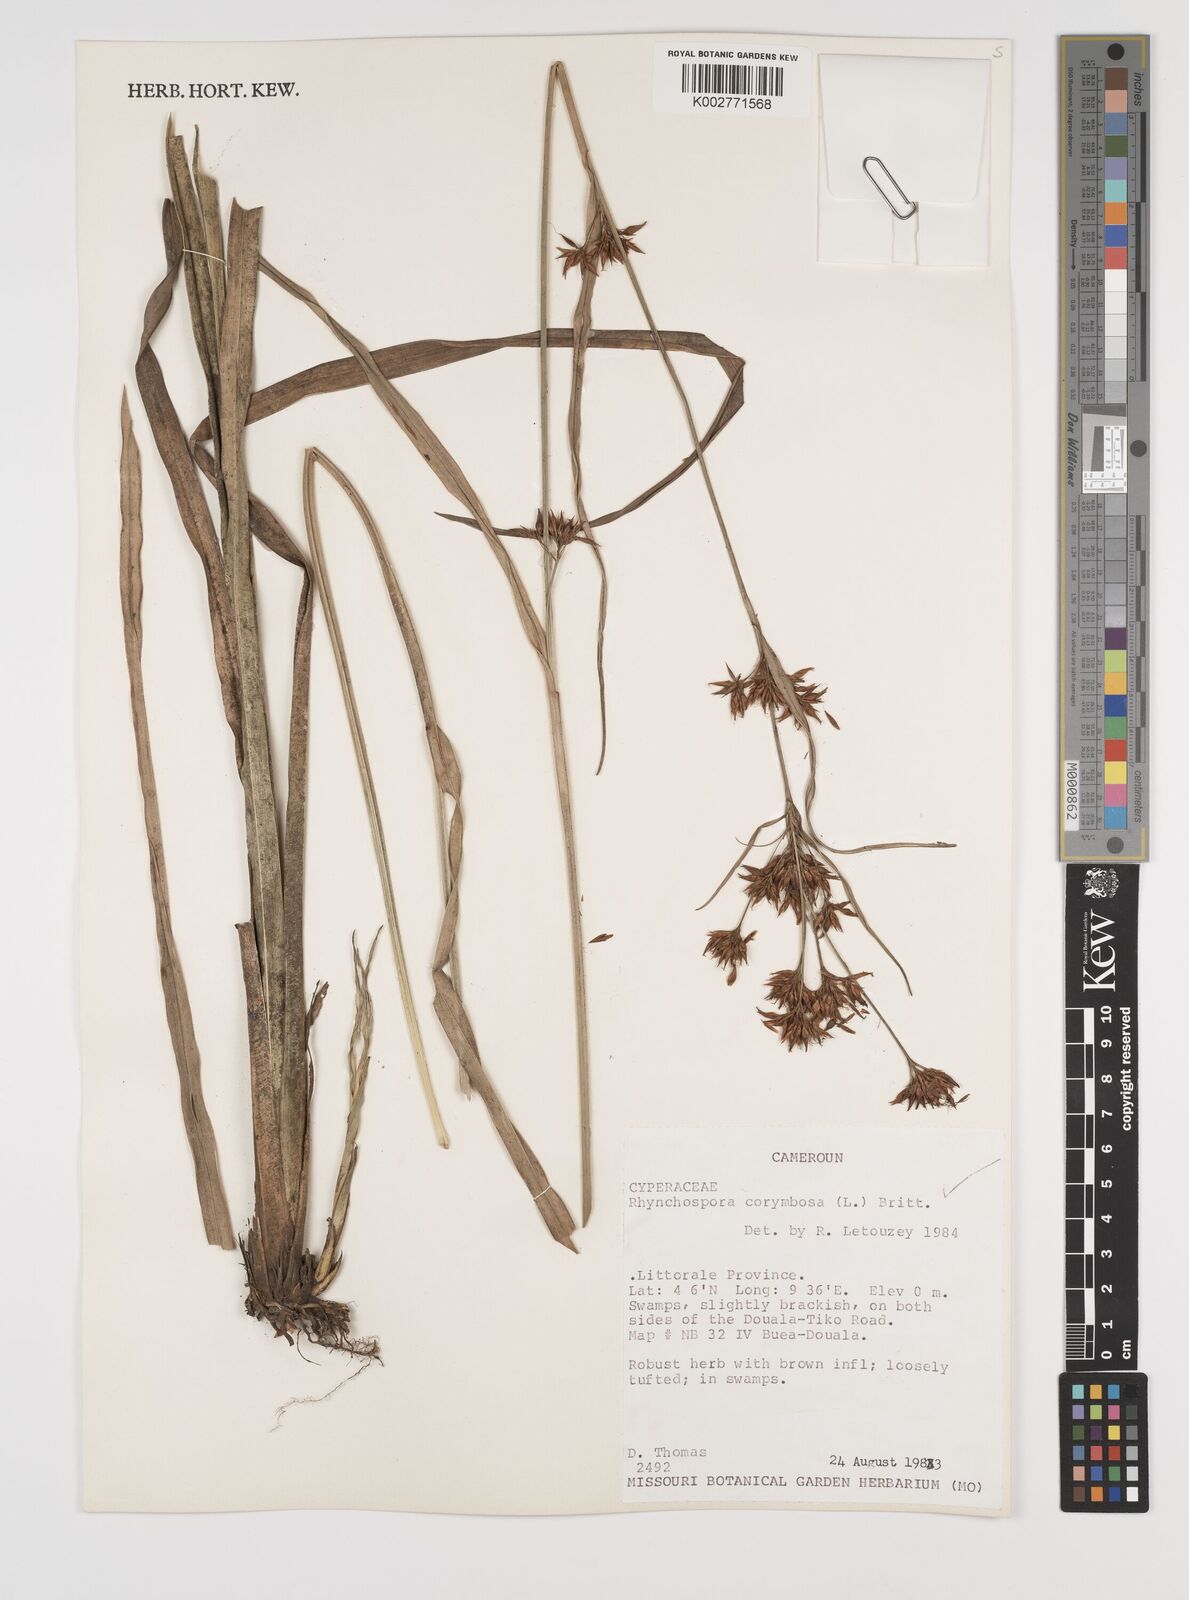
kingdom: Plantae
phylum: Tracheophyta
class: Liliopsida
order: Poales
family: Cyperaceae
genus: Rhynchospora
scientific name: Rhynchospora corymbosa
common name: Golden beak sedge
